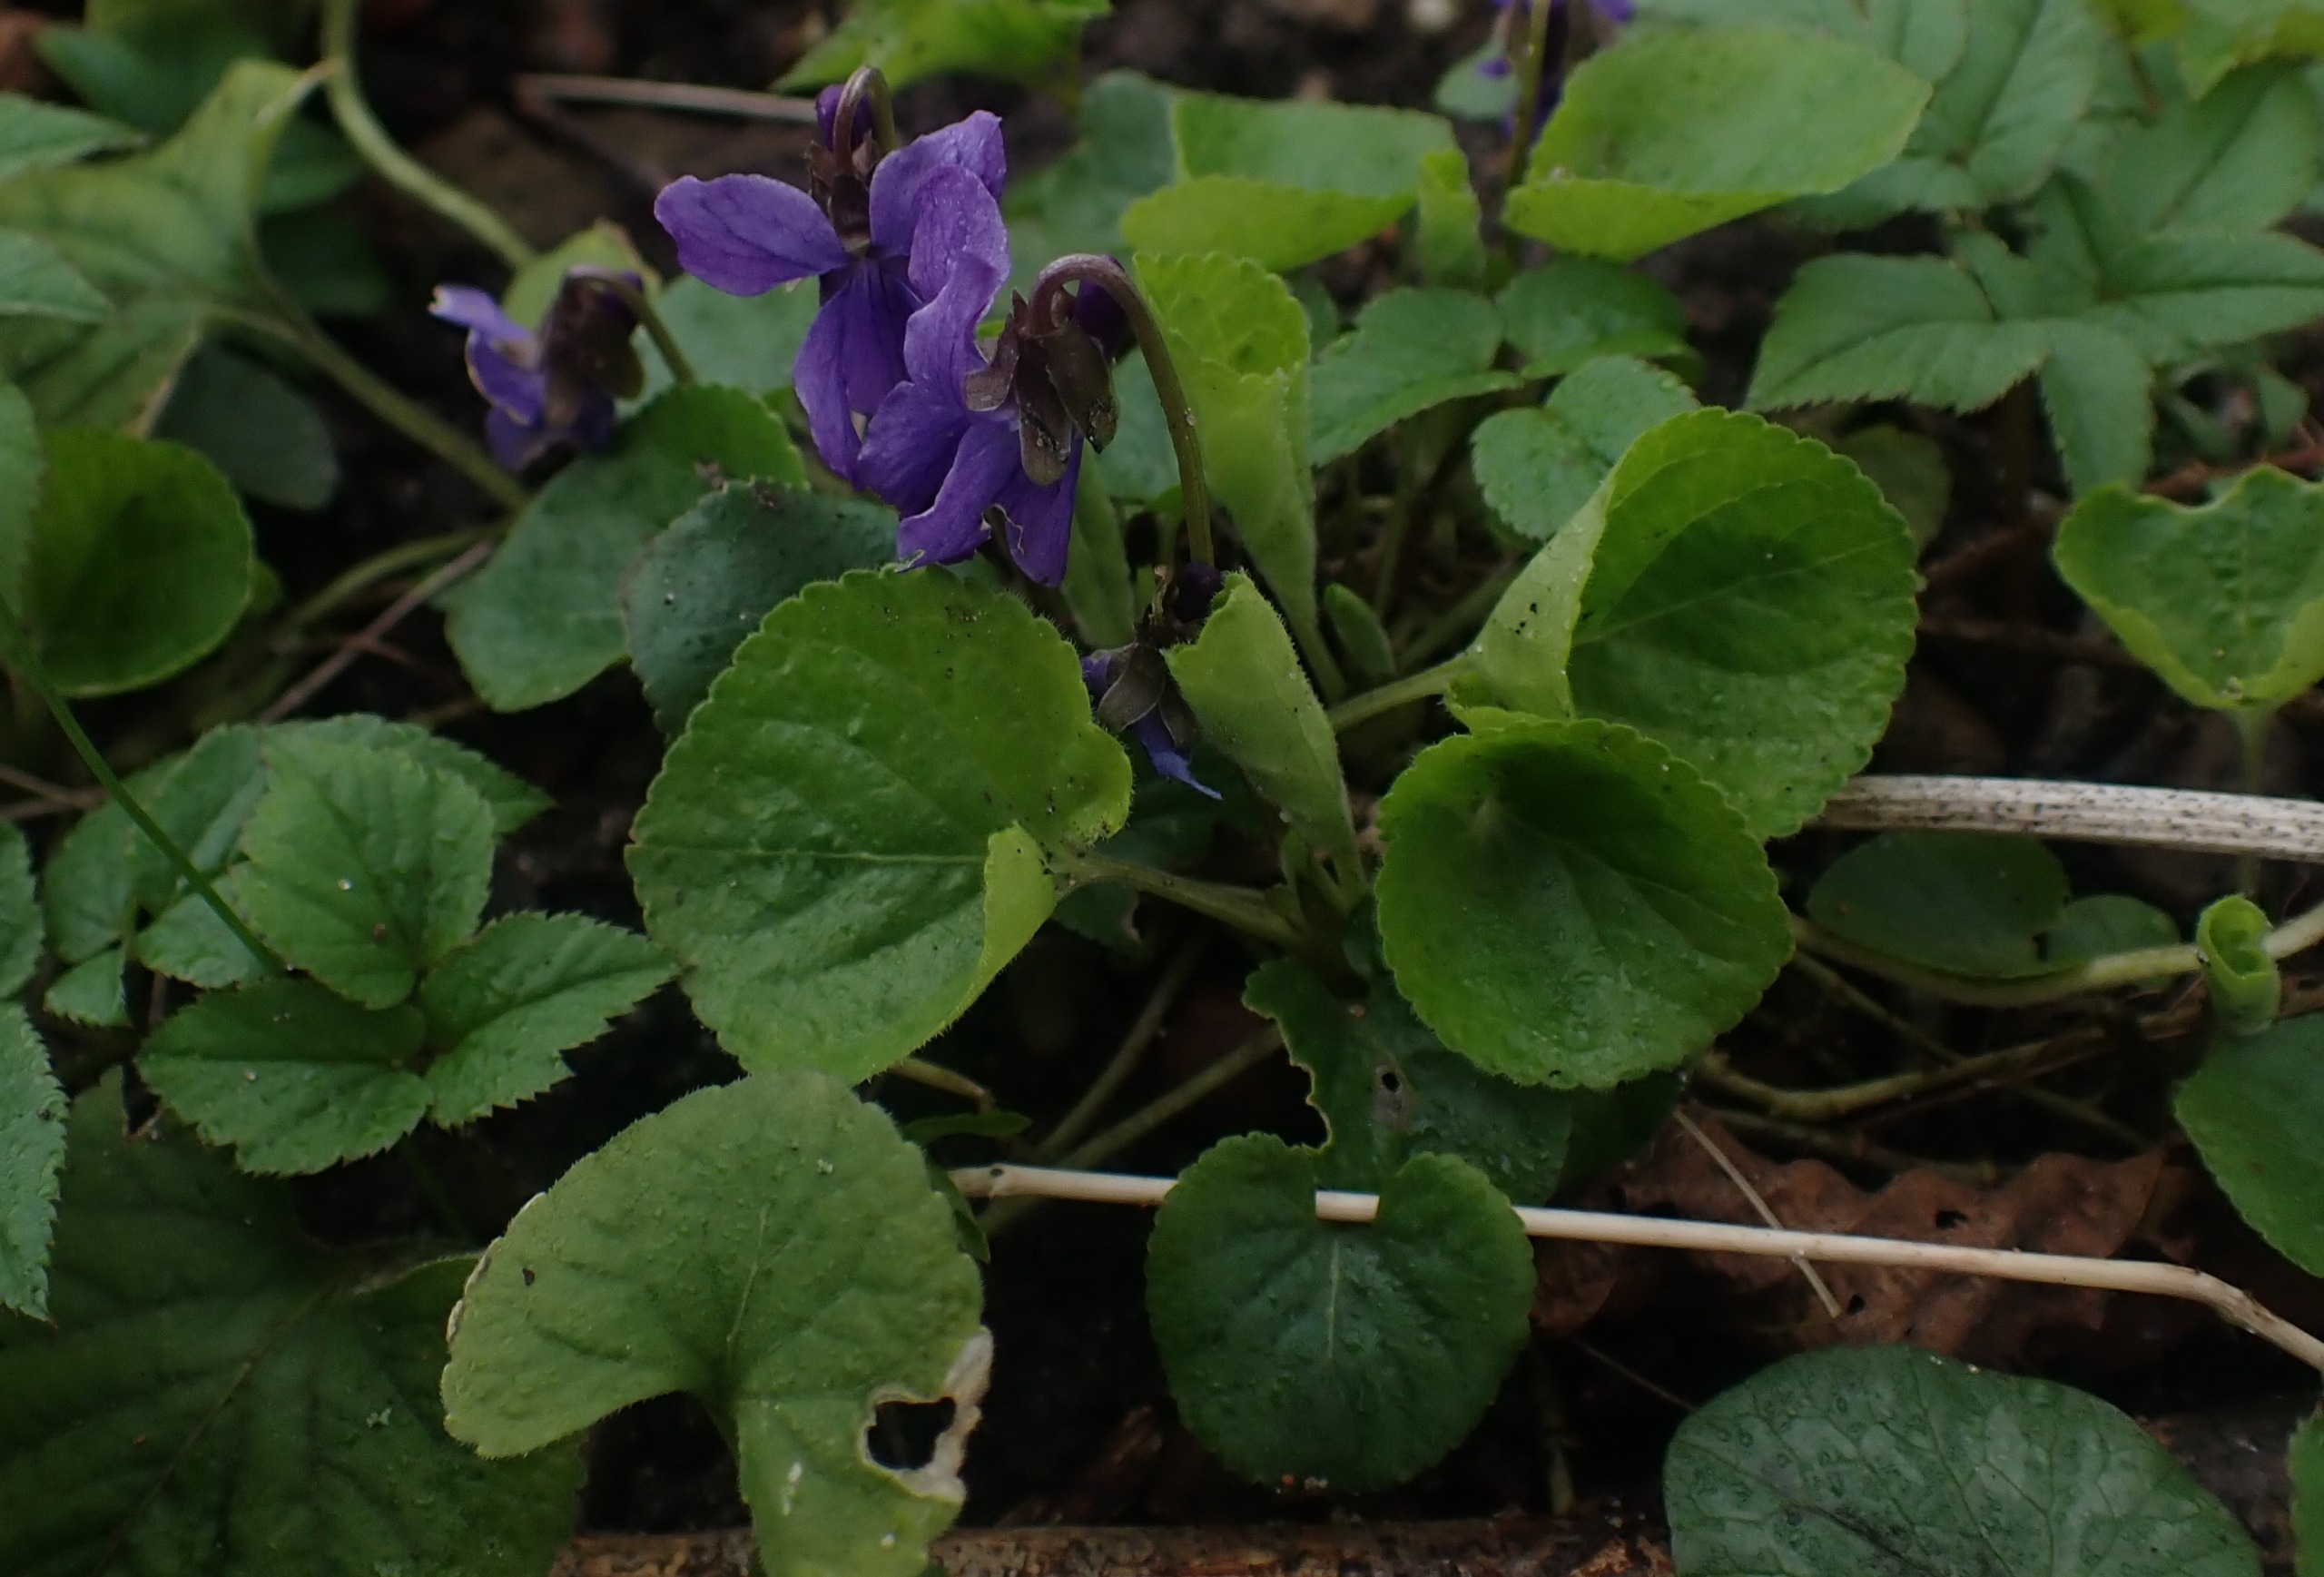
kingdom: Plantae
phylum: Tracheophyta
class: Magnoliopsida
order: Malpighiales
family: Violaceae
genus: Viola
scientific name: Viola odorata
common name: Marts-viol
